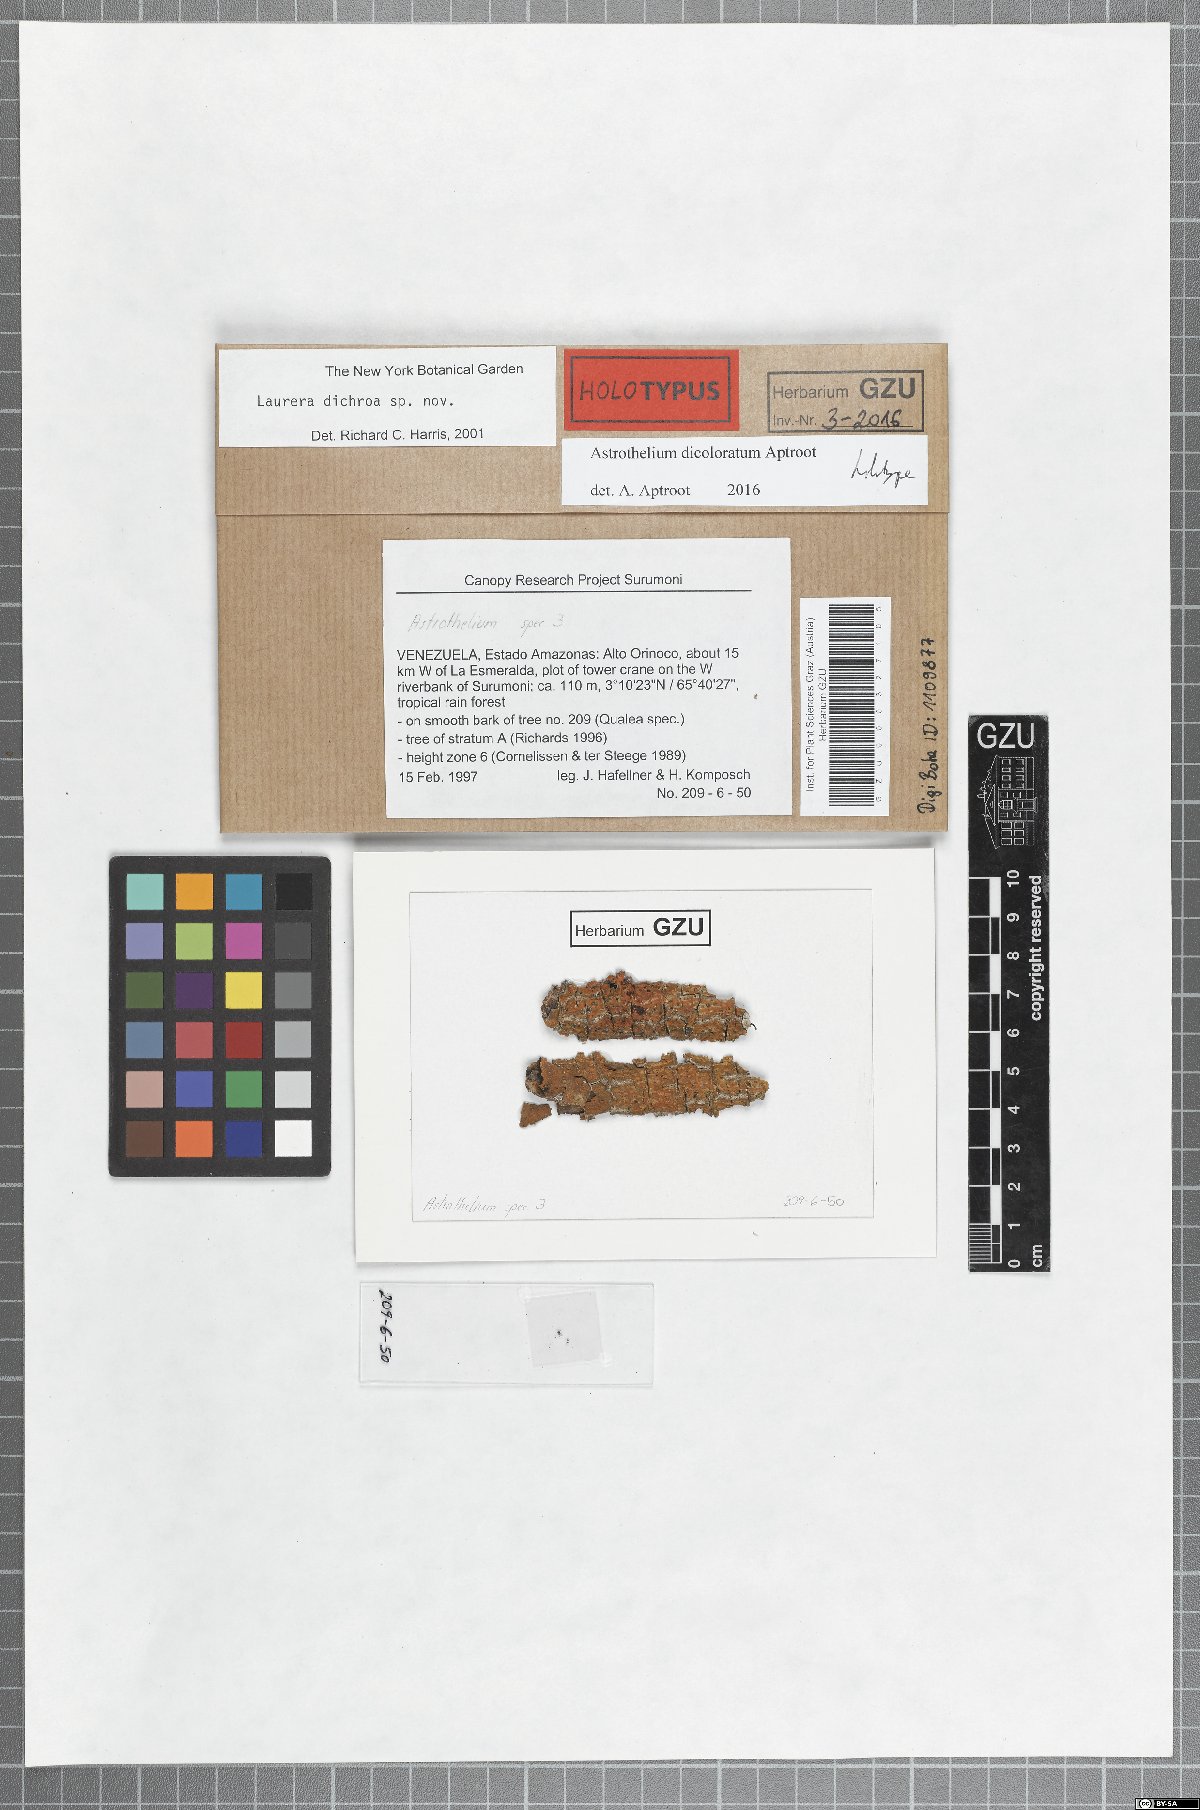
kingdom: Fungi
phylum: Ascomycota
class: Dothideomycetes
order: Trypetheliales
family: Trypetheliaceae
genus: Astrothelium
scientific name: Astrothelium dicoloratum
